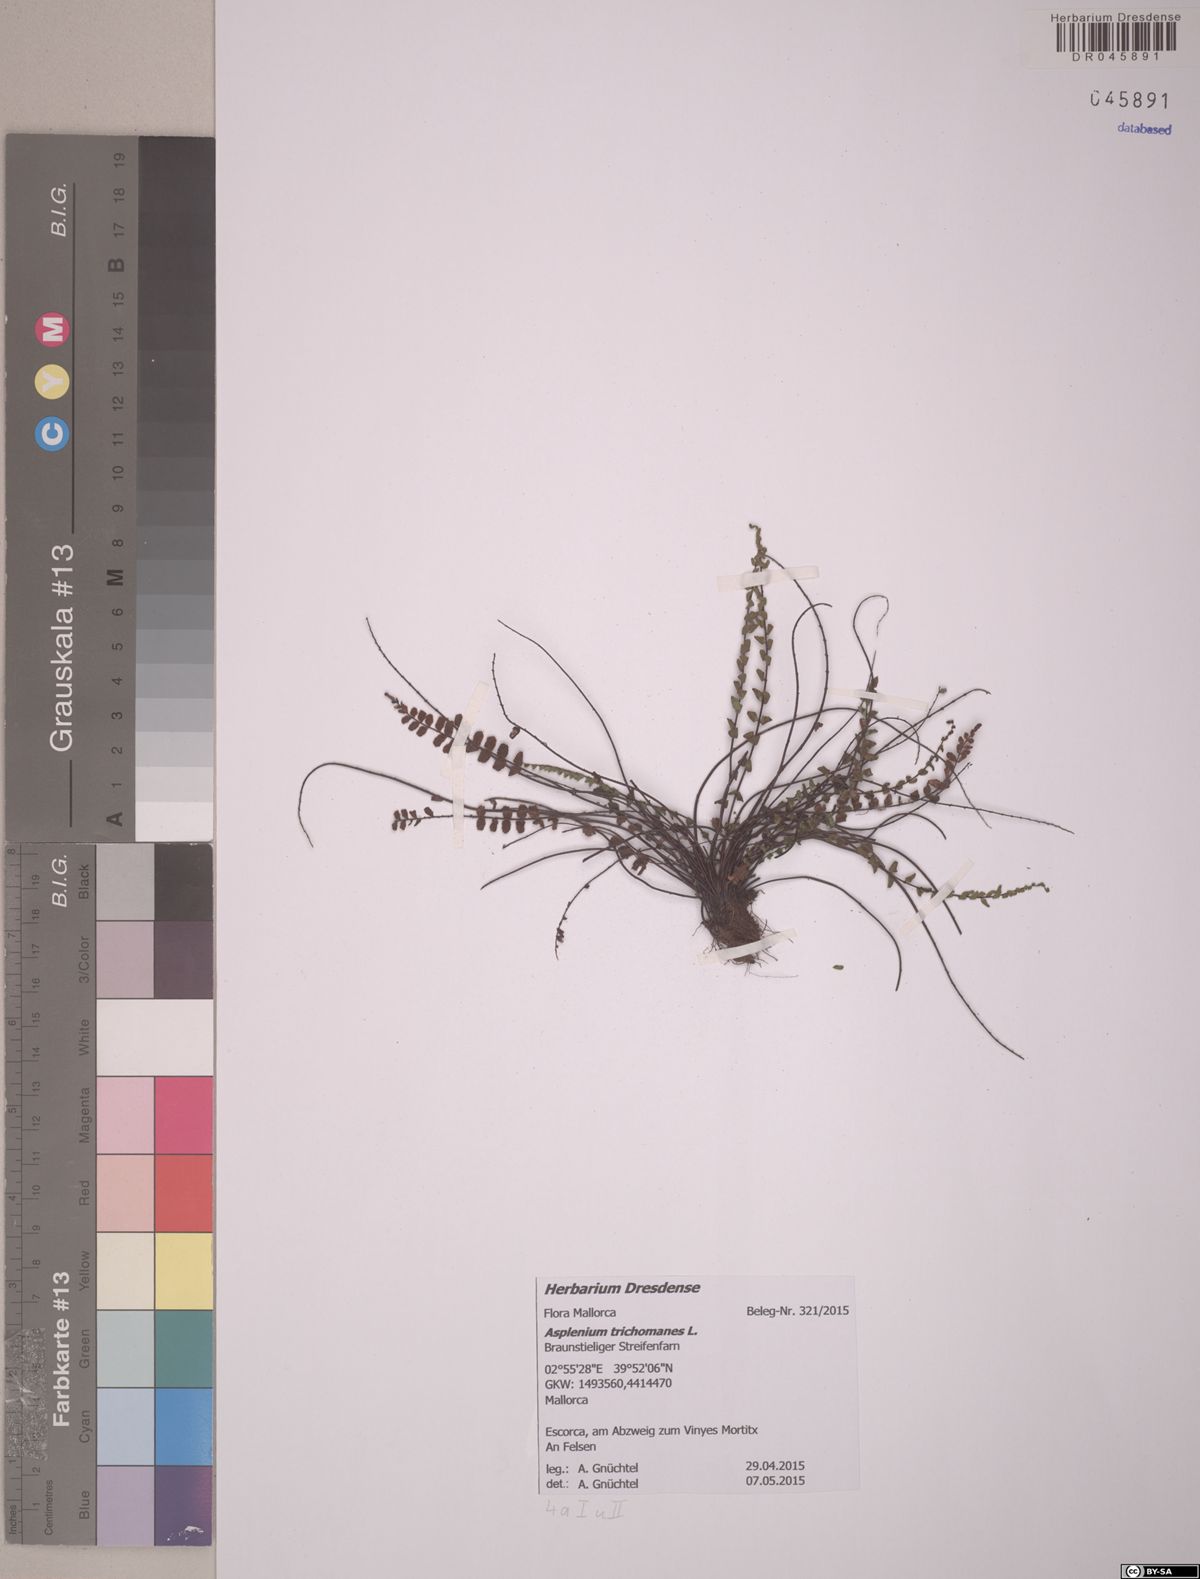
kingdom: Plantae
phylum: Tracheophyta
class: Polypodiopsida
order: Polypodiales
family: Aspleniaceae
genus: Asplenium
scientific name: Asplenium trichomanes
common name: Maidenhair spleenwort
